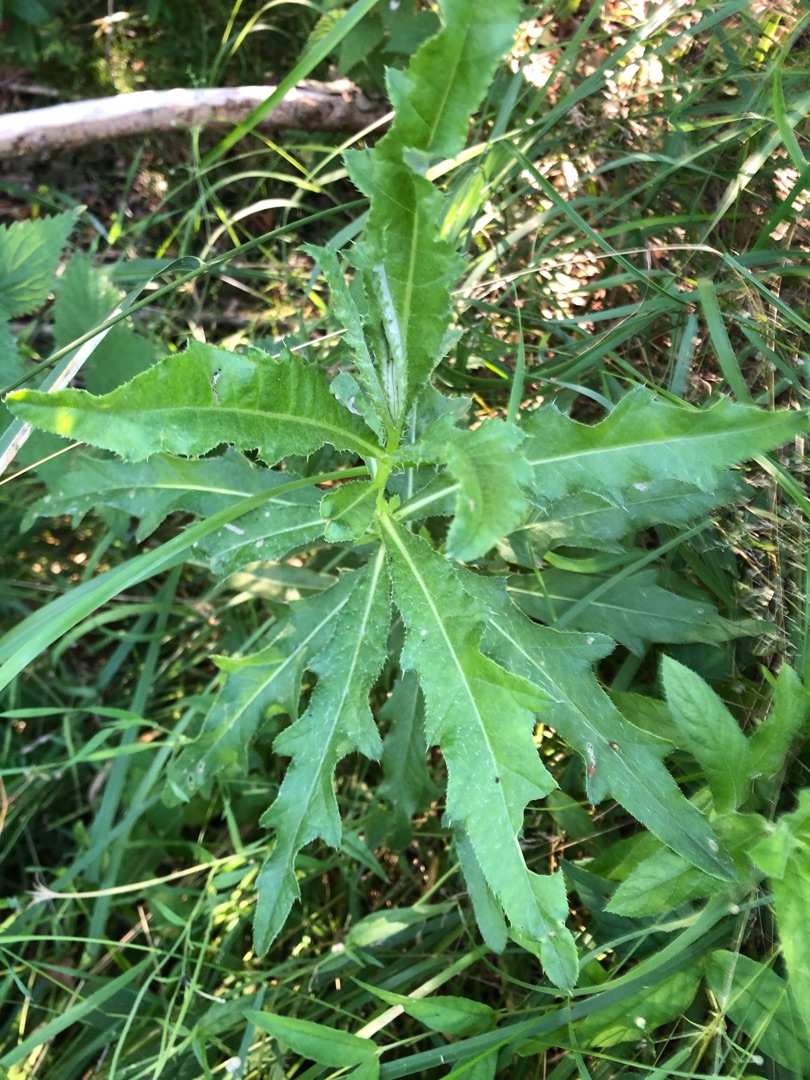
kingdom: Plantae
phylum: Tracheophyta
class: Magnoliopsida
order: Asterales
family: Asteraceae
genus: Cirsium
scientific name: Cirsium arvense
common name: Ager-tidsel
